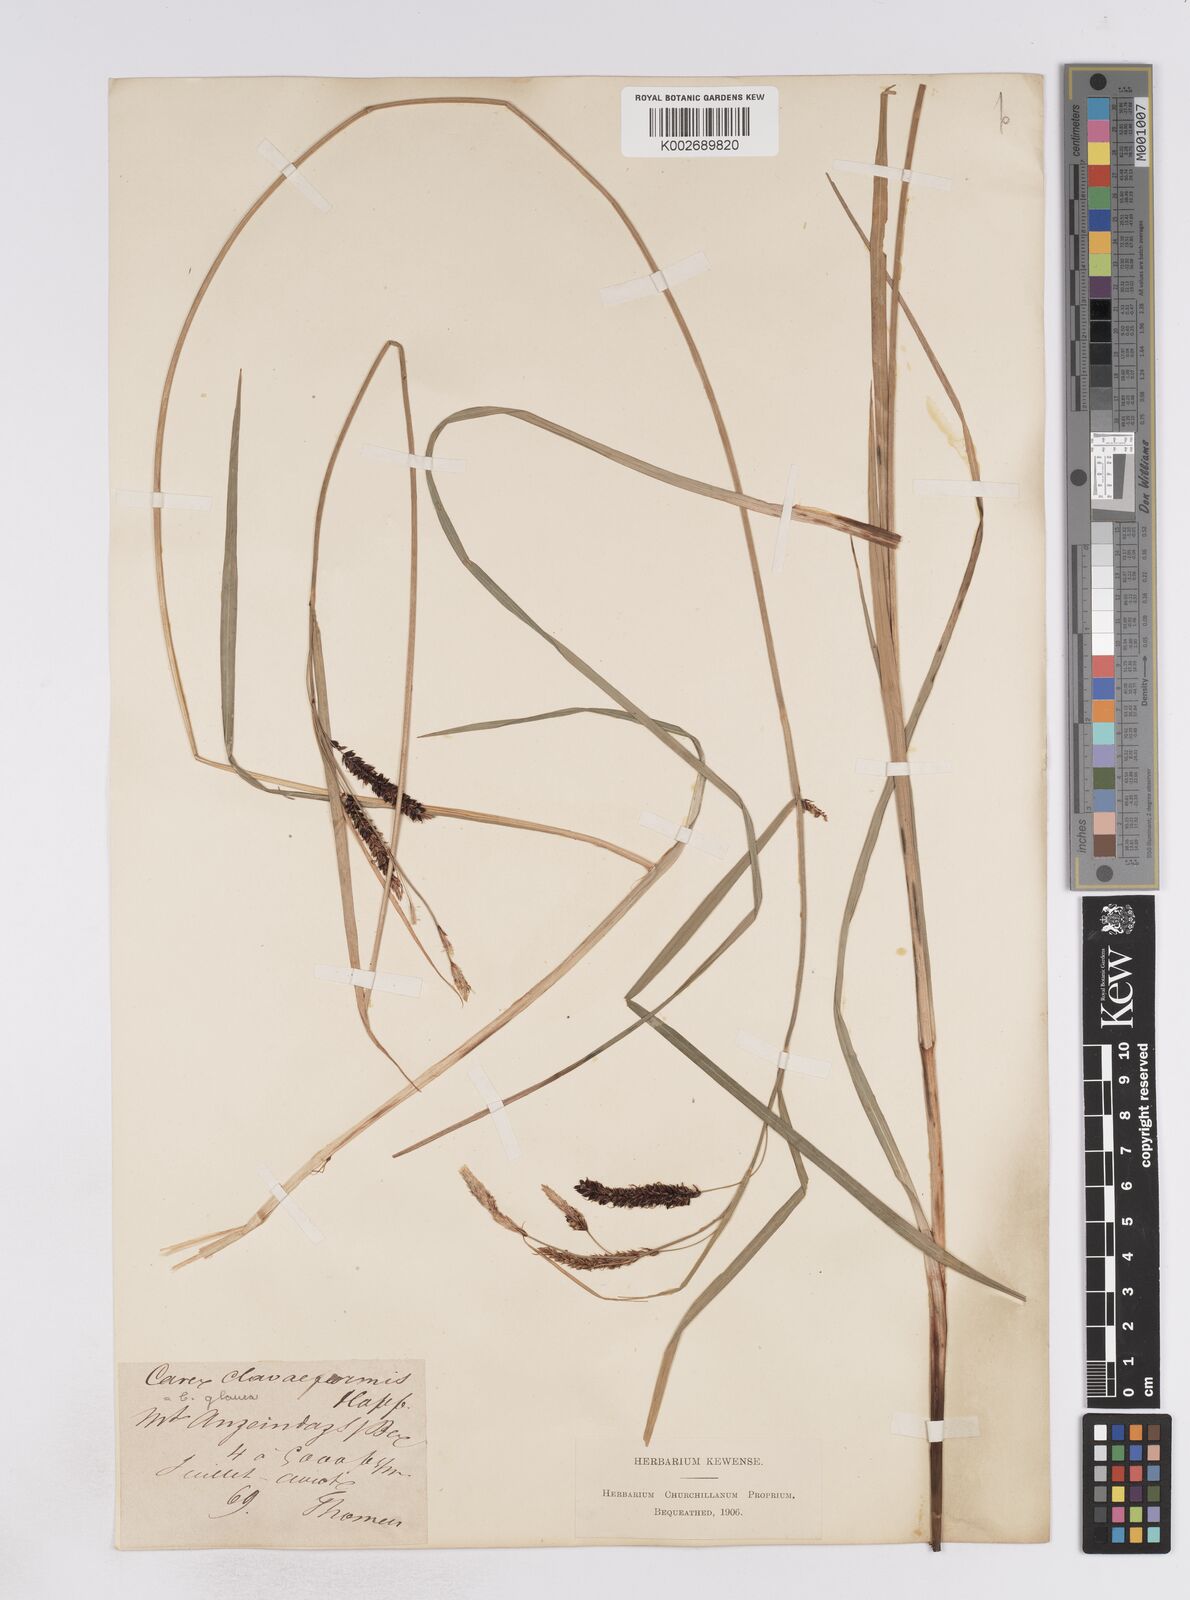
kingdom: Plantae
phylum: Tracheophyta
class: Liliopsida
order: Poales
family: Cyperaceae
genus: Carex
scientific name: Carex flacca
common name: Glaucous sedge
